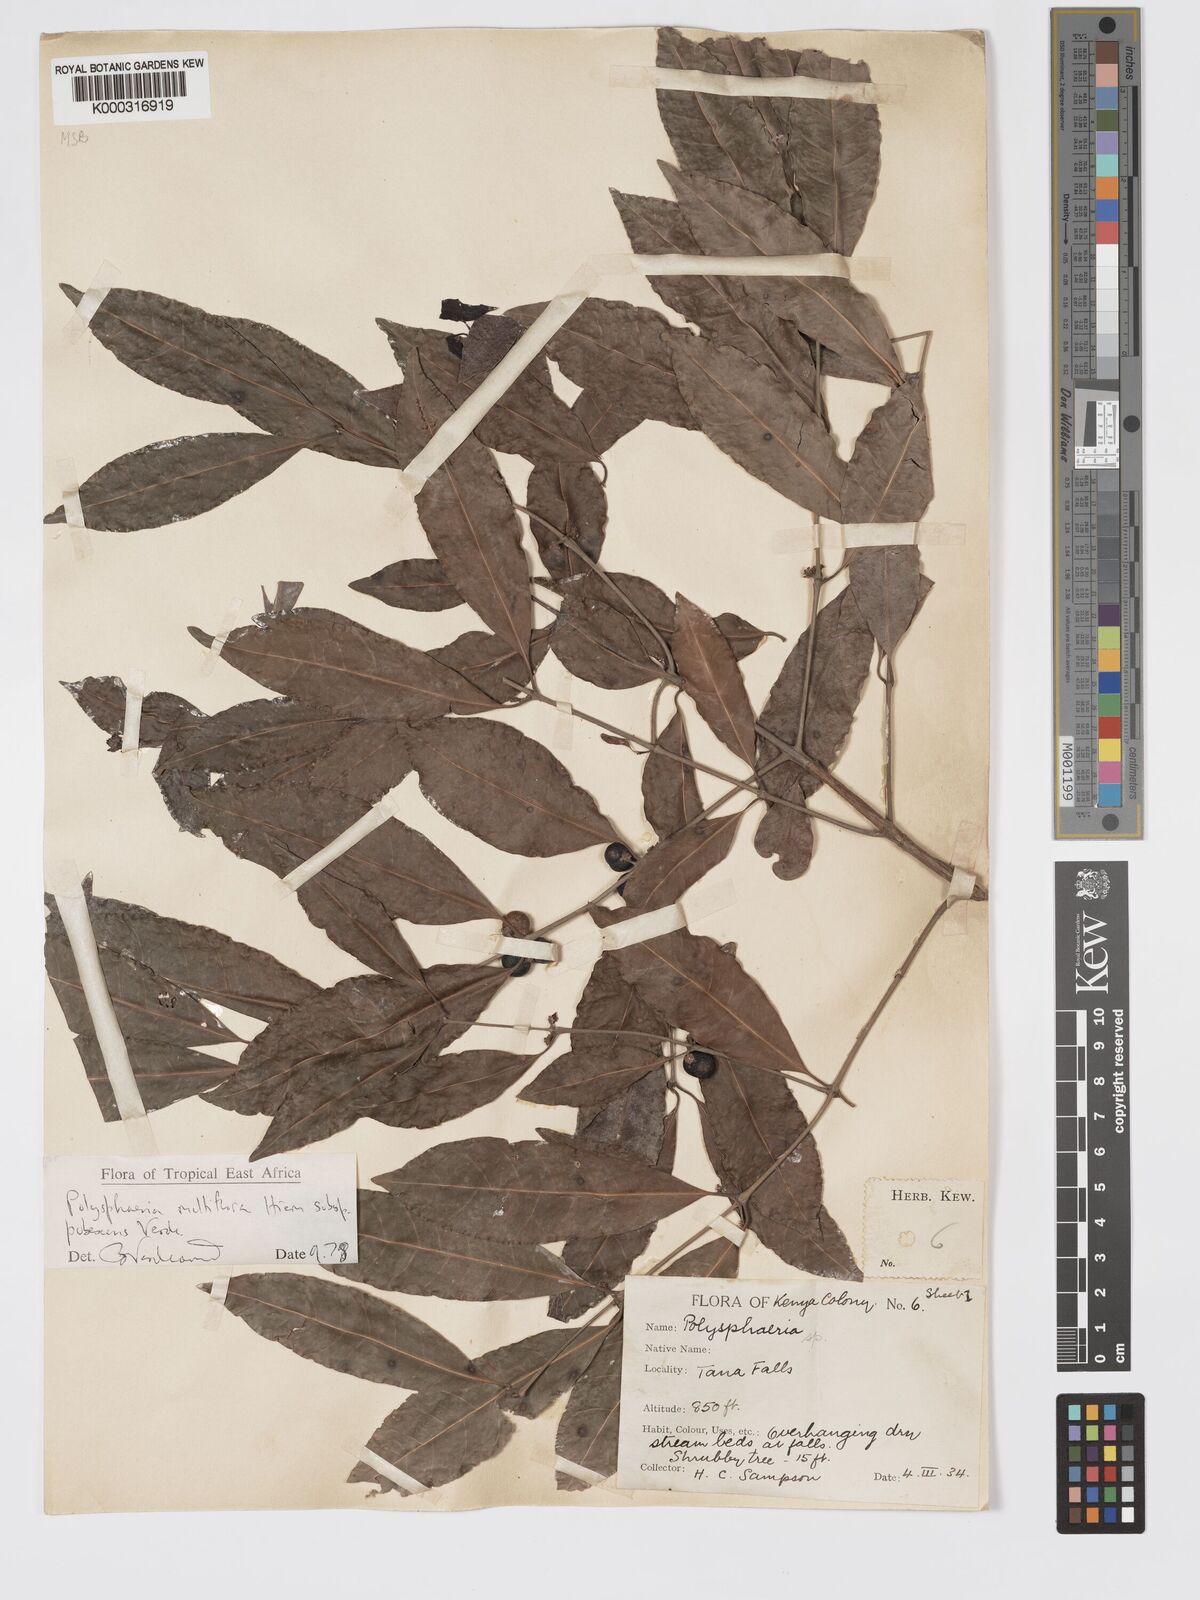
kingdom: Plantae
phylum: Tracheophyta
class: Magnoliopsida
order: Gentianales
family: Rubiaceae
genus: Polysphaeria
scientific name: Polysphaeria multiflora
